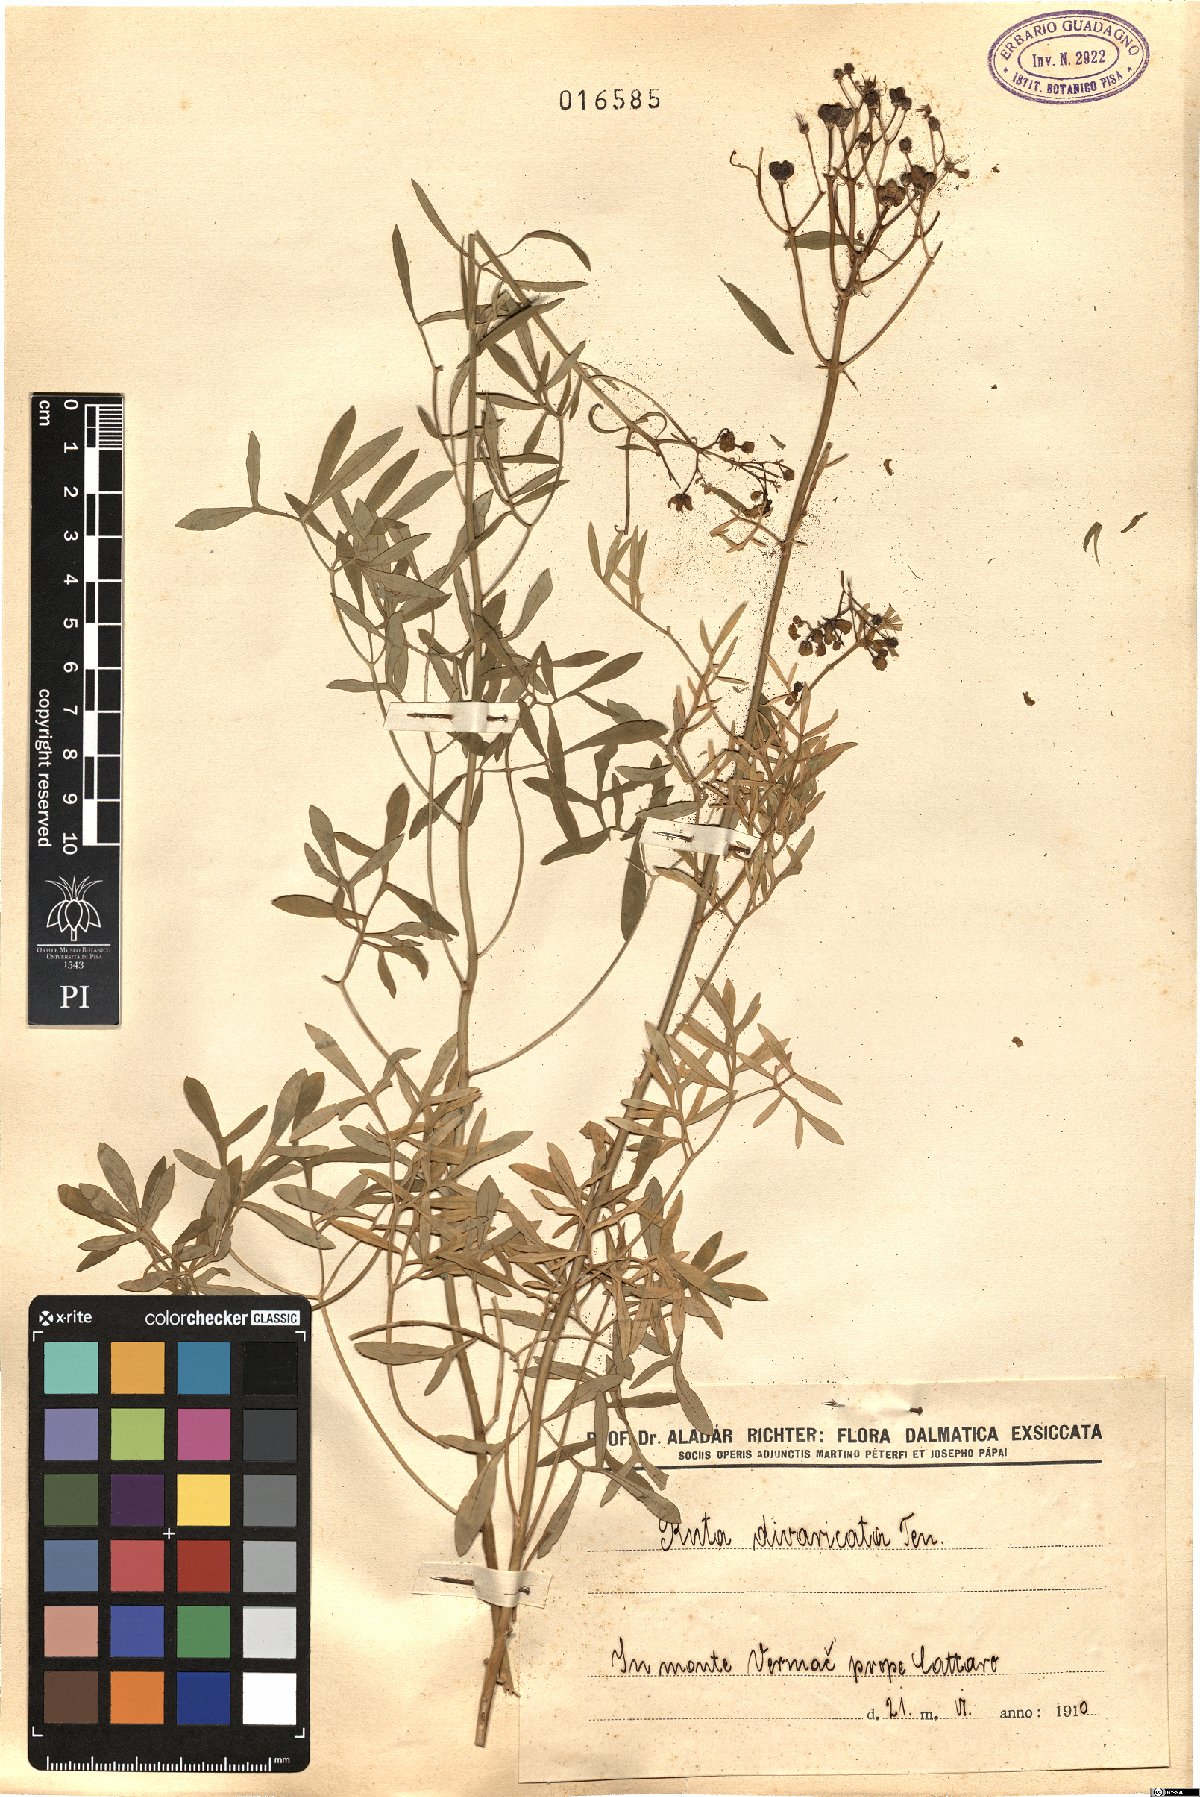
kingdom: Plantae
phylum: Tracheophyta
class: Magnoliopsida
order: Sapindales
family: Rutaceae
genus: Ruta
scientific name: Ruta graveolens
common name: Common rue
